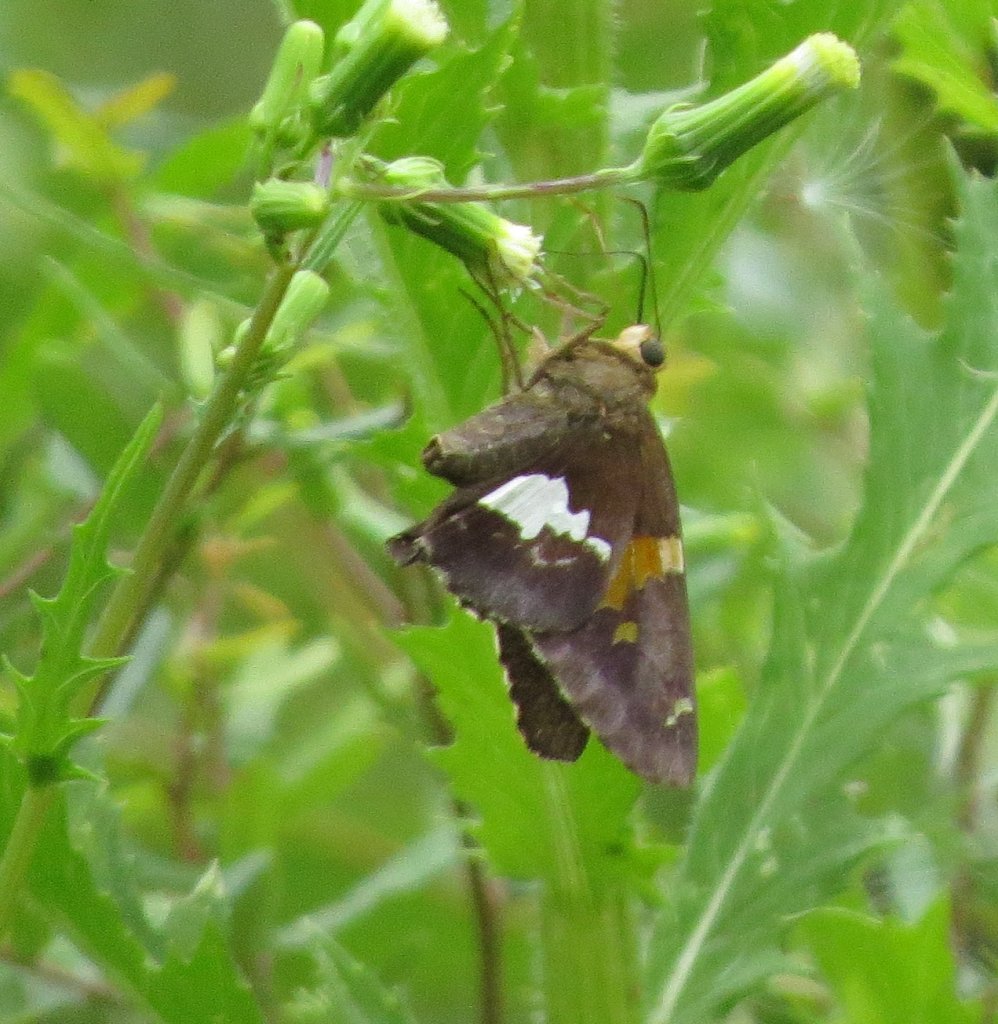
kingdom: Animalia
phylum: Arthropoda
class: Insecta
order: Lepidoptera
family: Hesperiidae
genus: Epargyreus
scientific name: Epargyreus clarus
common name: Silver-spotted Skipper
